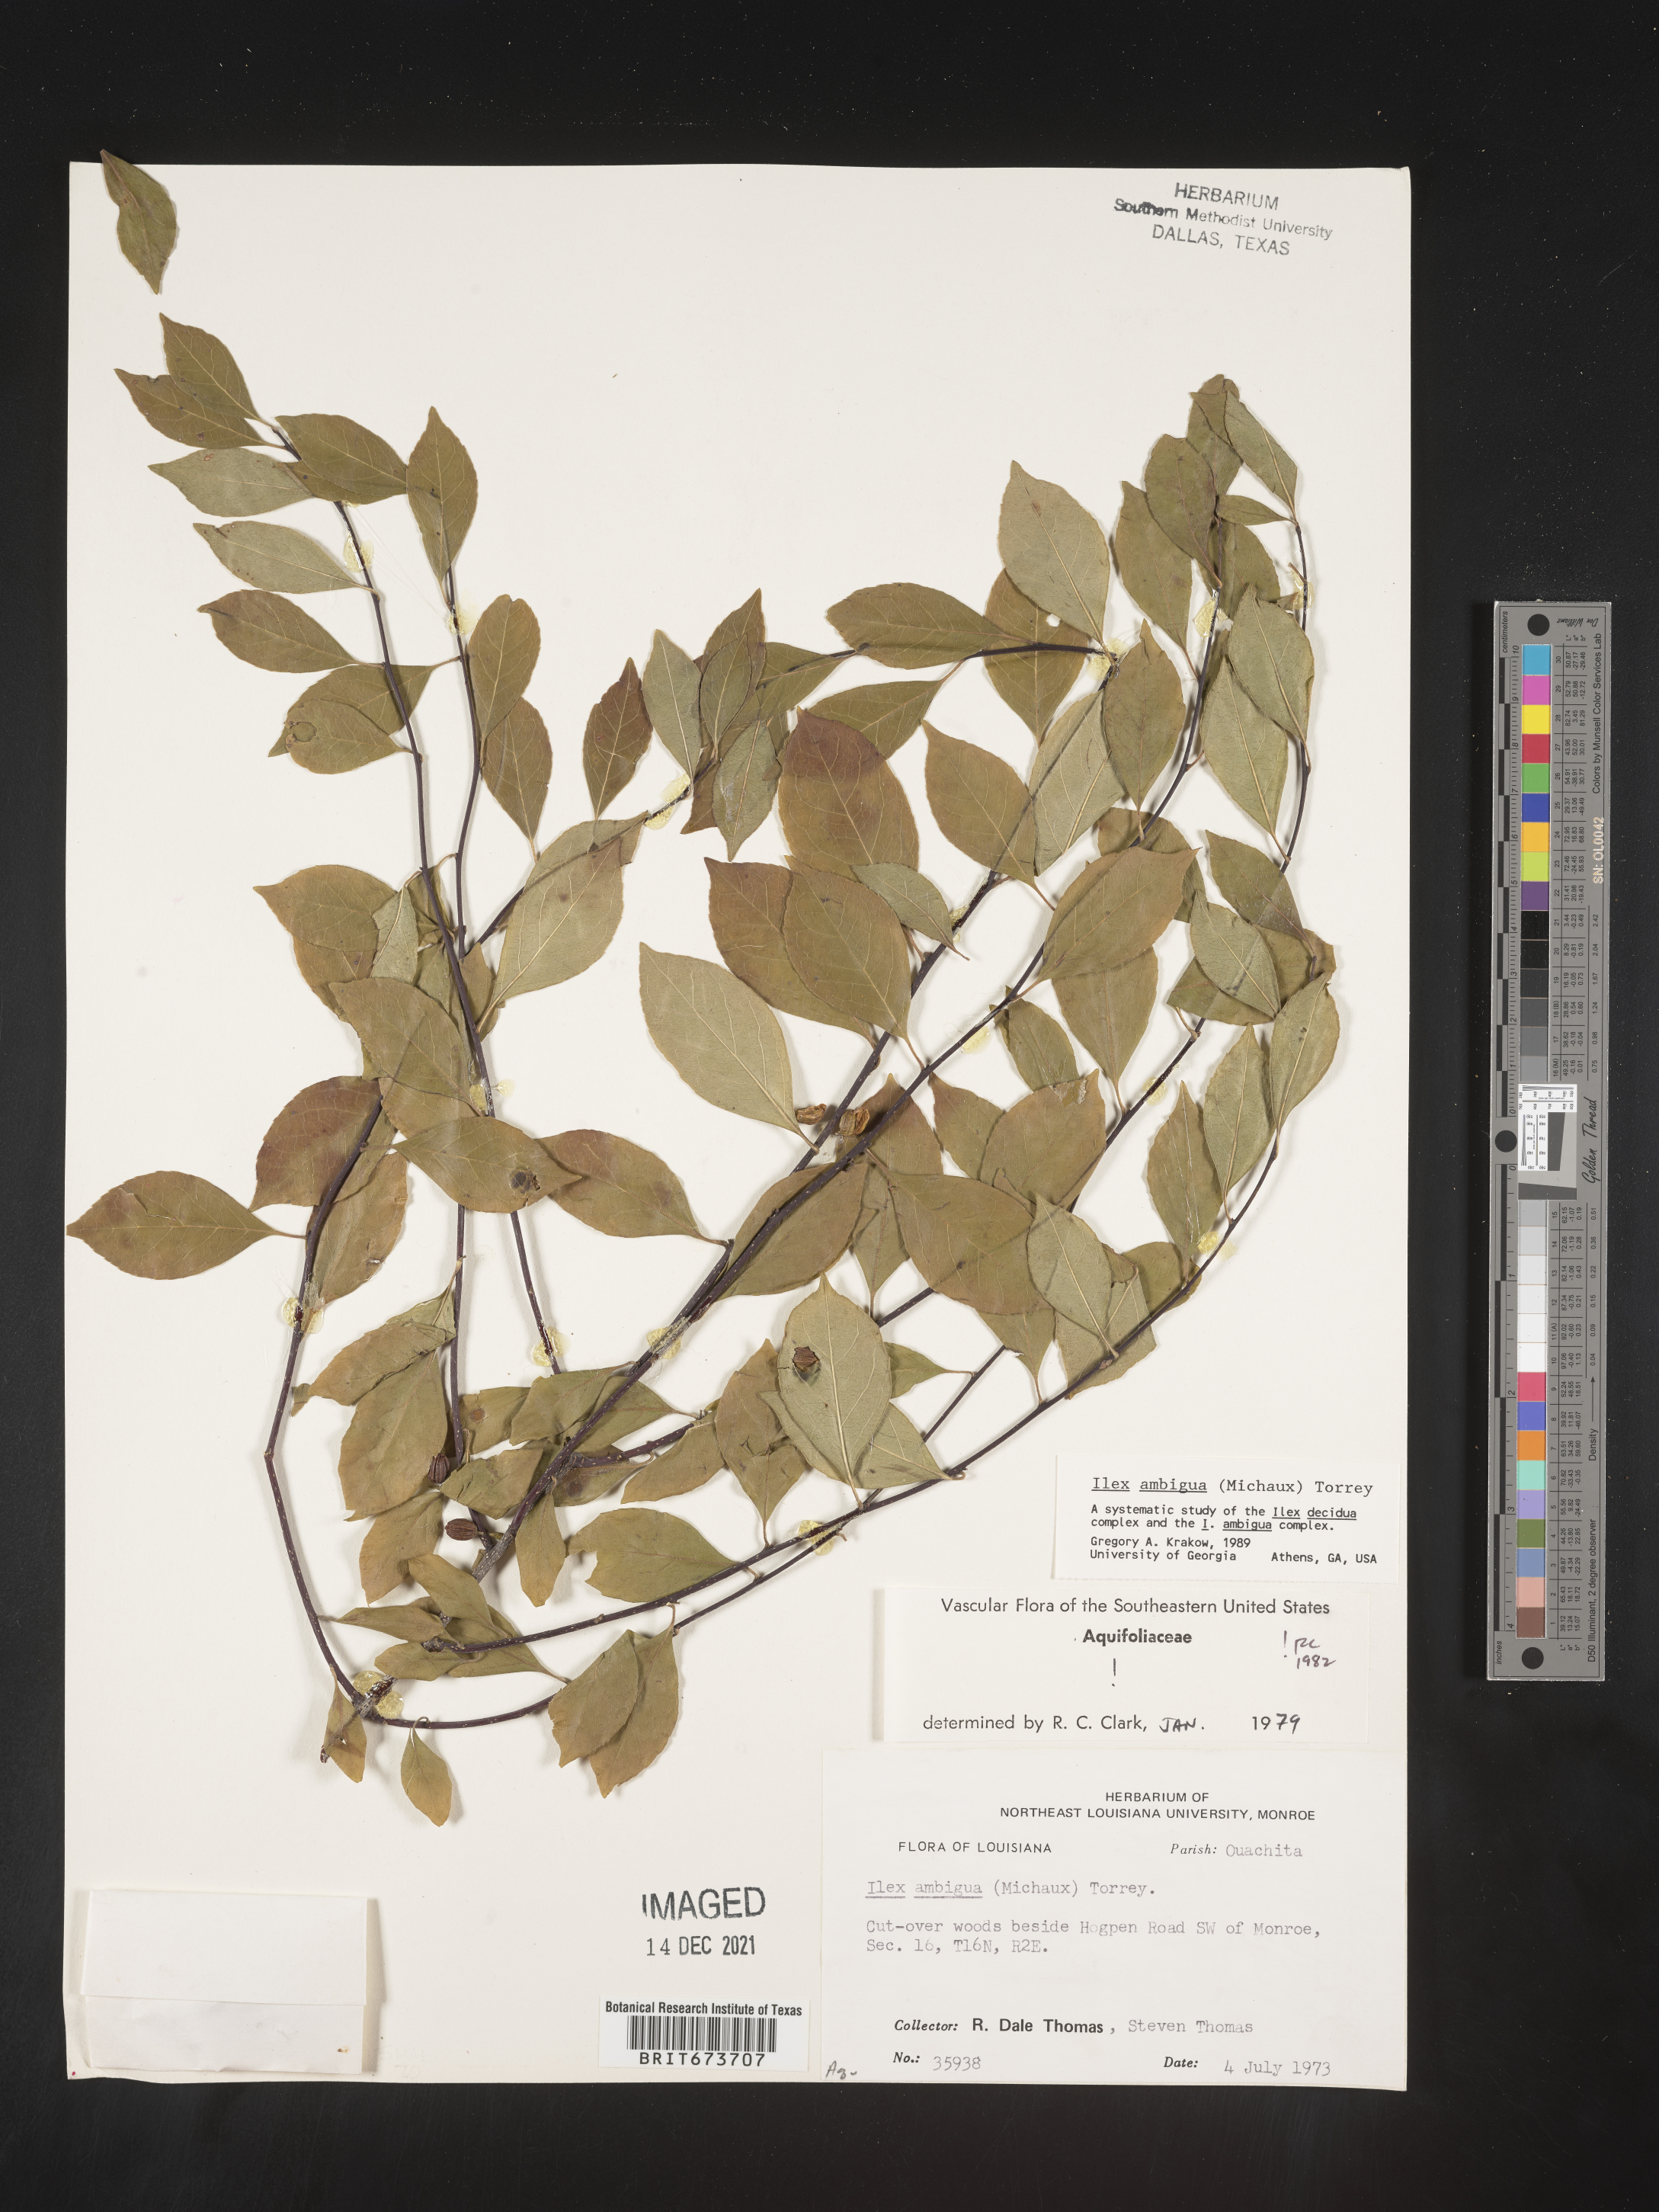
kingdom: Plantae
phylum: Tracheophyta
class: Magnoliopsida
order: Aquifoliales
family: Aquifoliaceae
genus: Ilex
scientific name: Ilex ambigua
